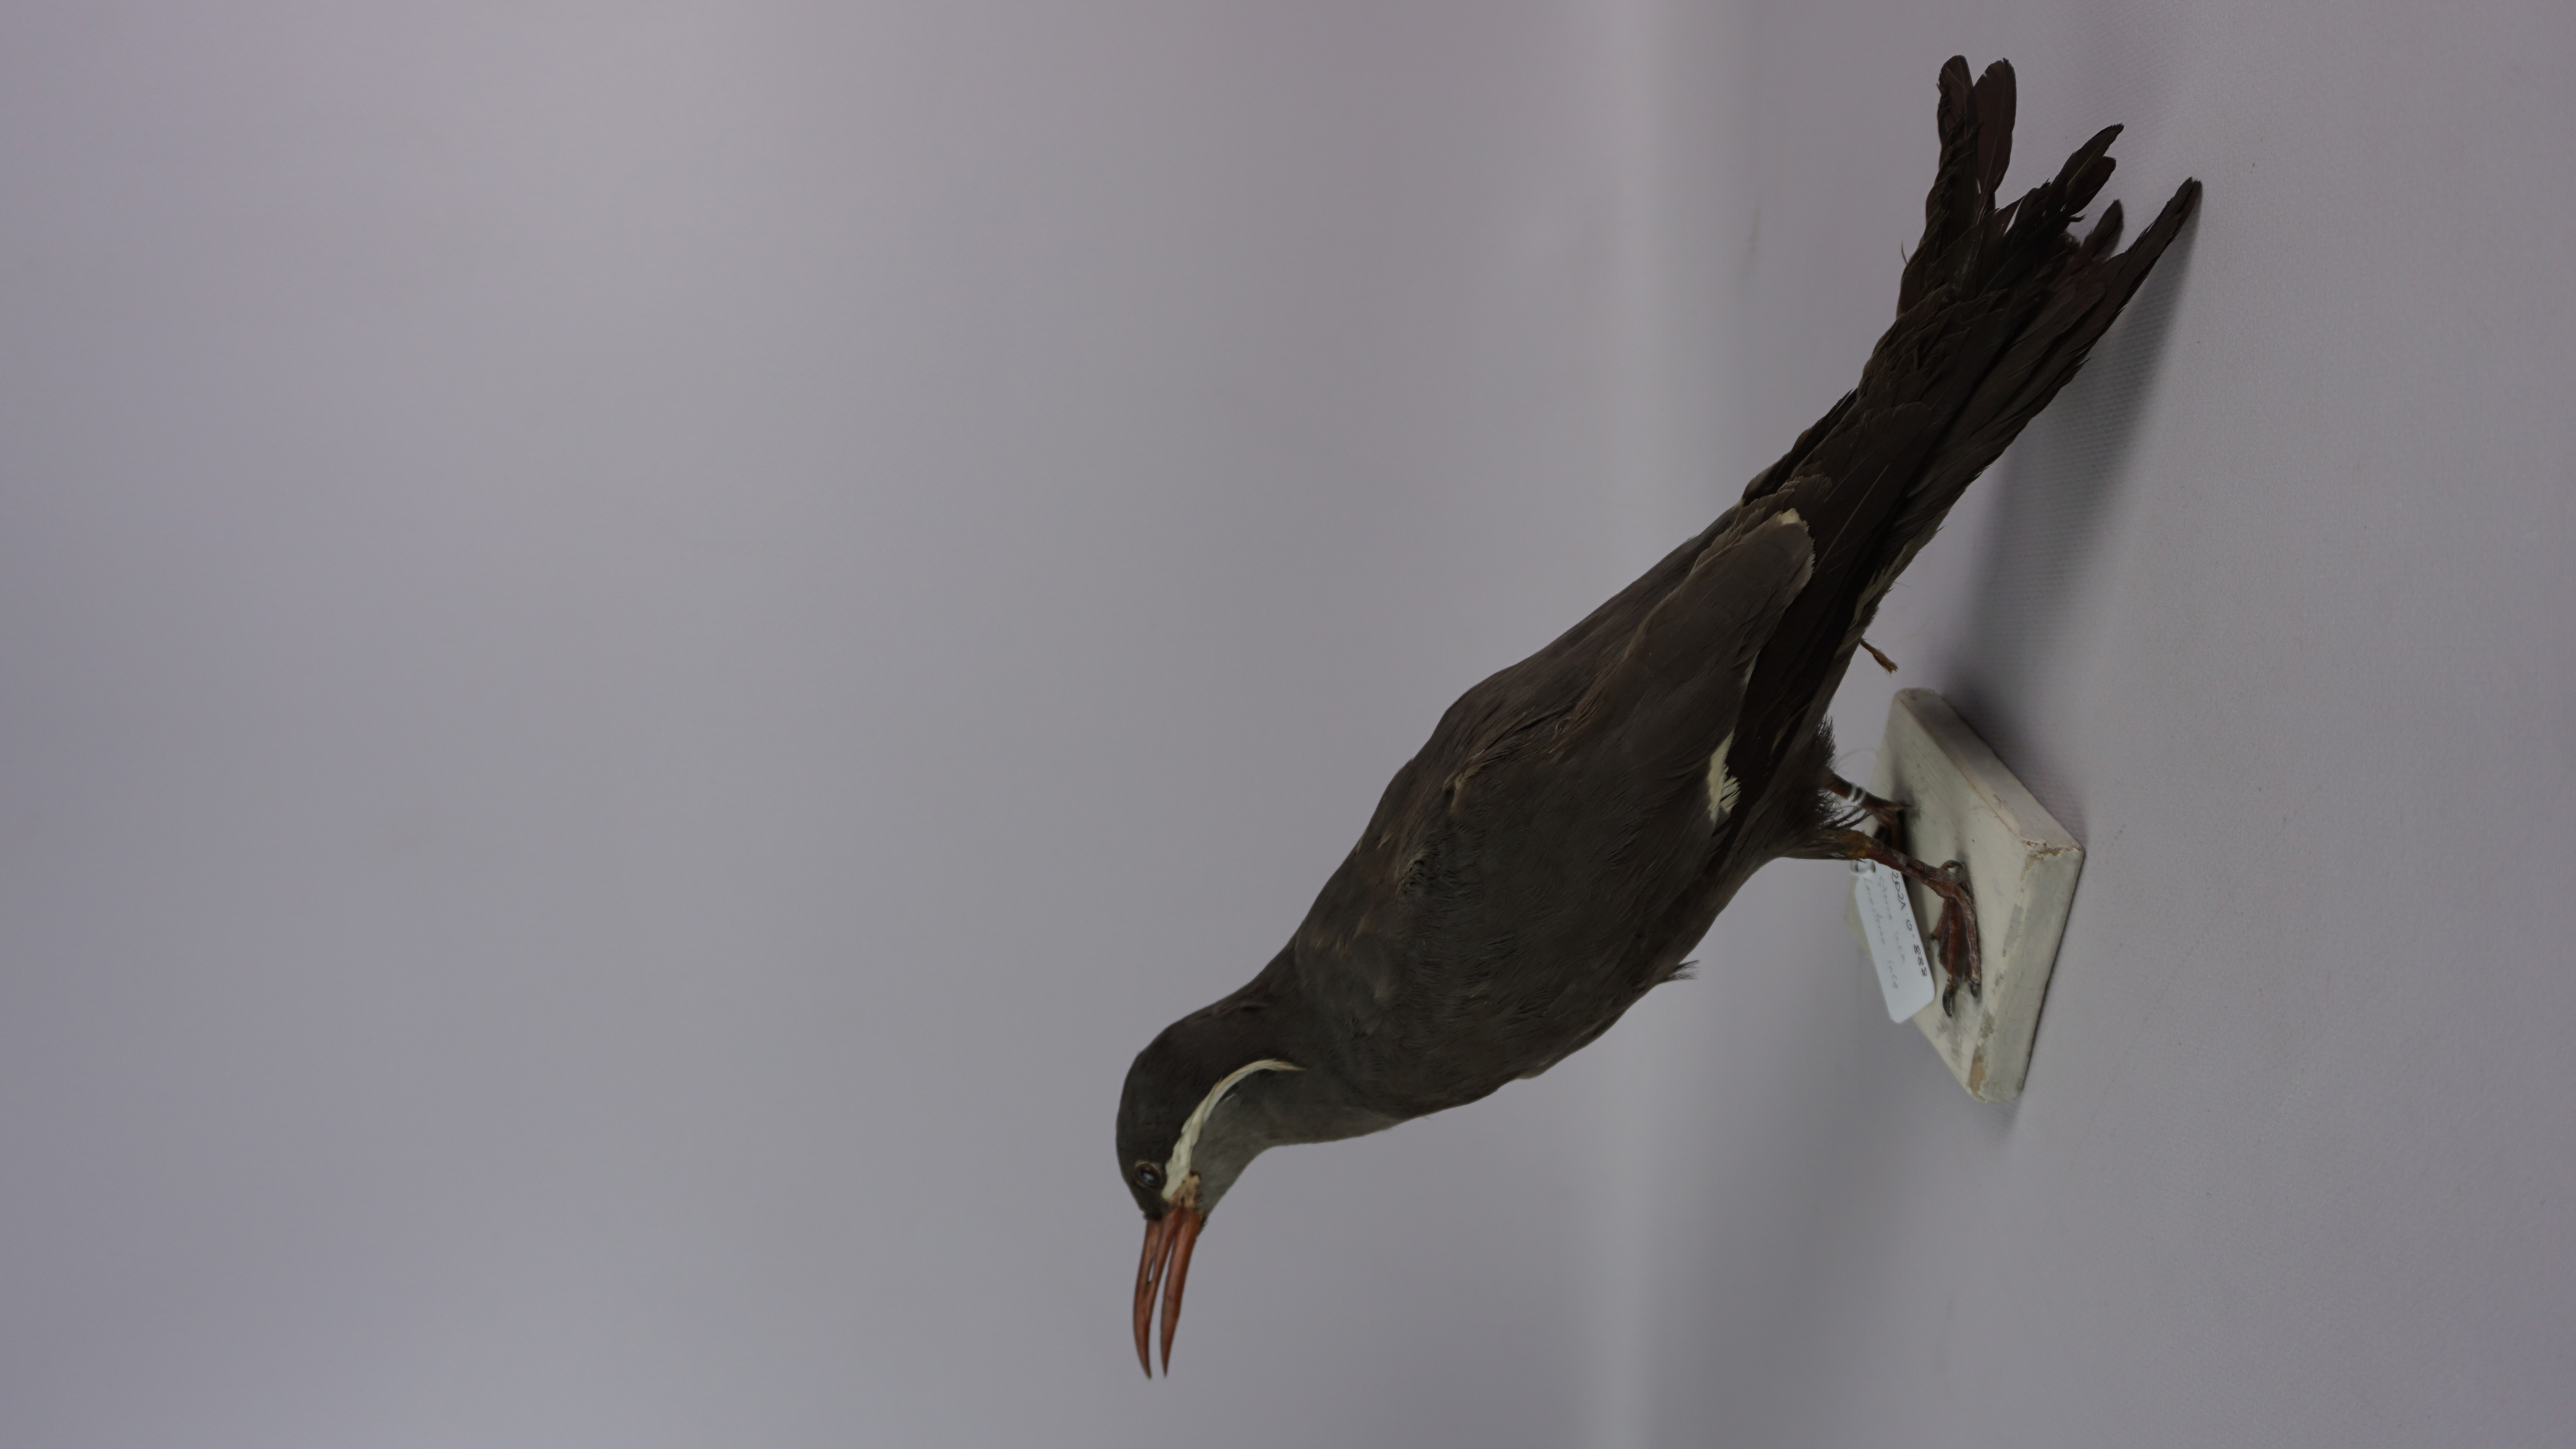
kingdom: Animalia
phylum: Chordata
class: Aves
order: Charadriiformes
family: Laridae
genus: Larosterna
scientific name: Larosterna inca
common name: Inca tern
